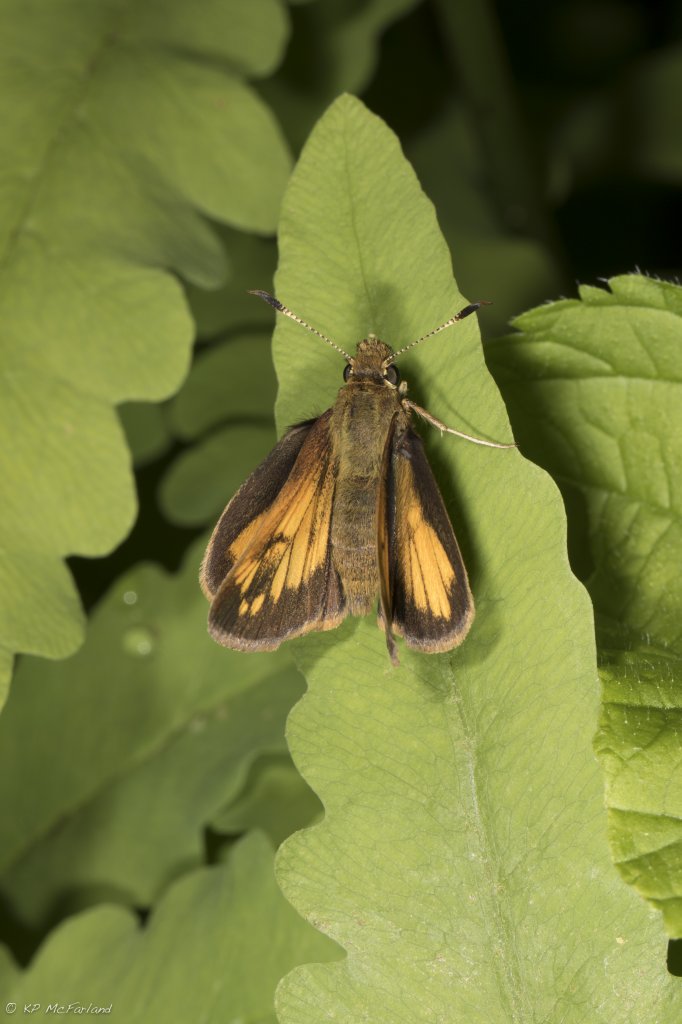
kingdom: Animalia
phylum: Arthropoda
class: Insecta
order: Lepidoptera
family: Hesperiidae
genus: Lon
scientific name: Lon hobomok
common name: Hobomok Skipper
